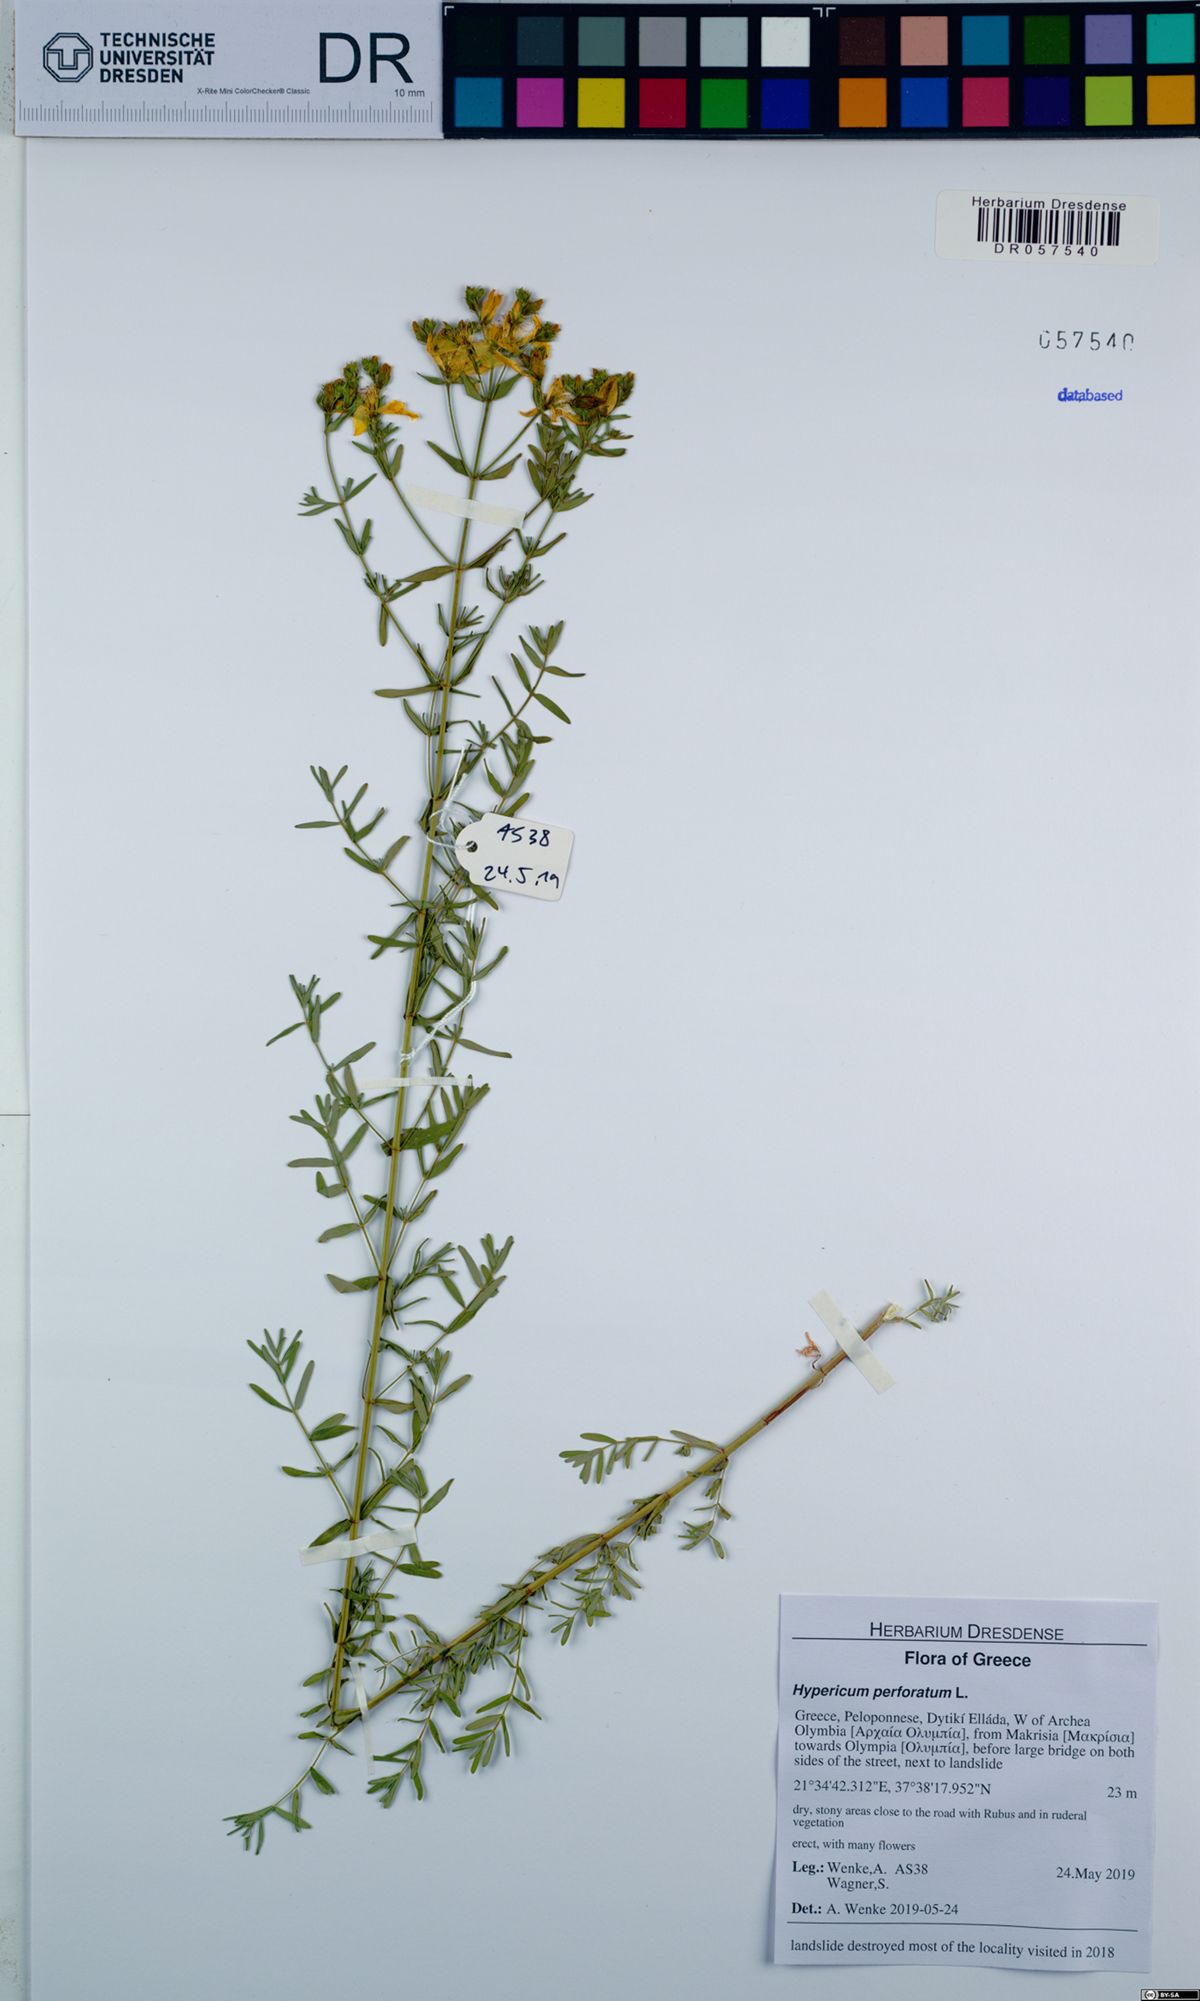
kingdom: Plantae
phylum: Tracheophyta
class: Magnoliopsida
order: Malpighiales
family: Hypericaceae
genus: Hypericum
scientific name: Hypericum perforatum
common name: Common st. johnswort
